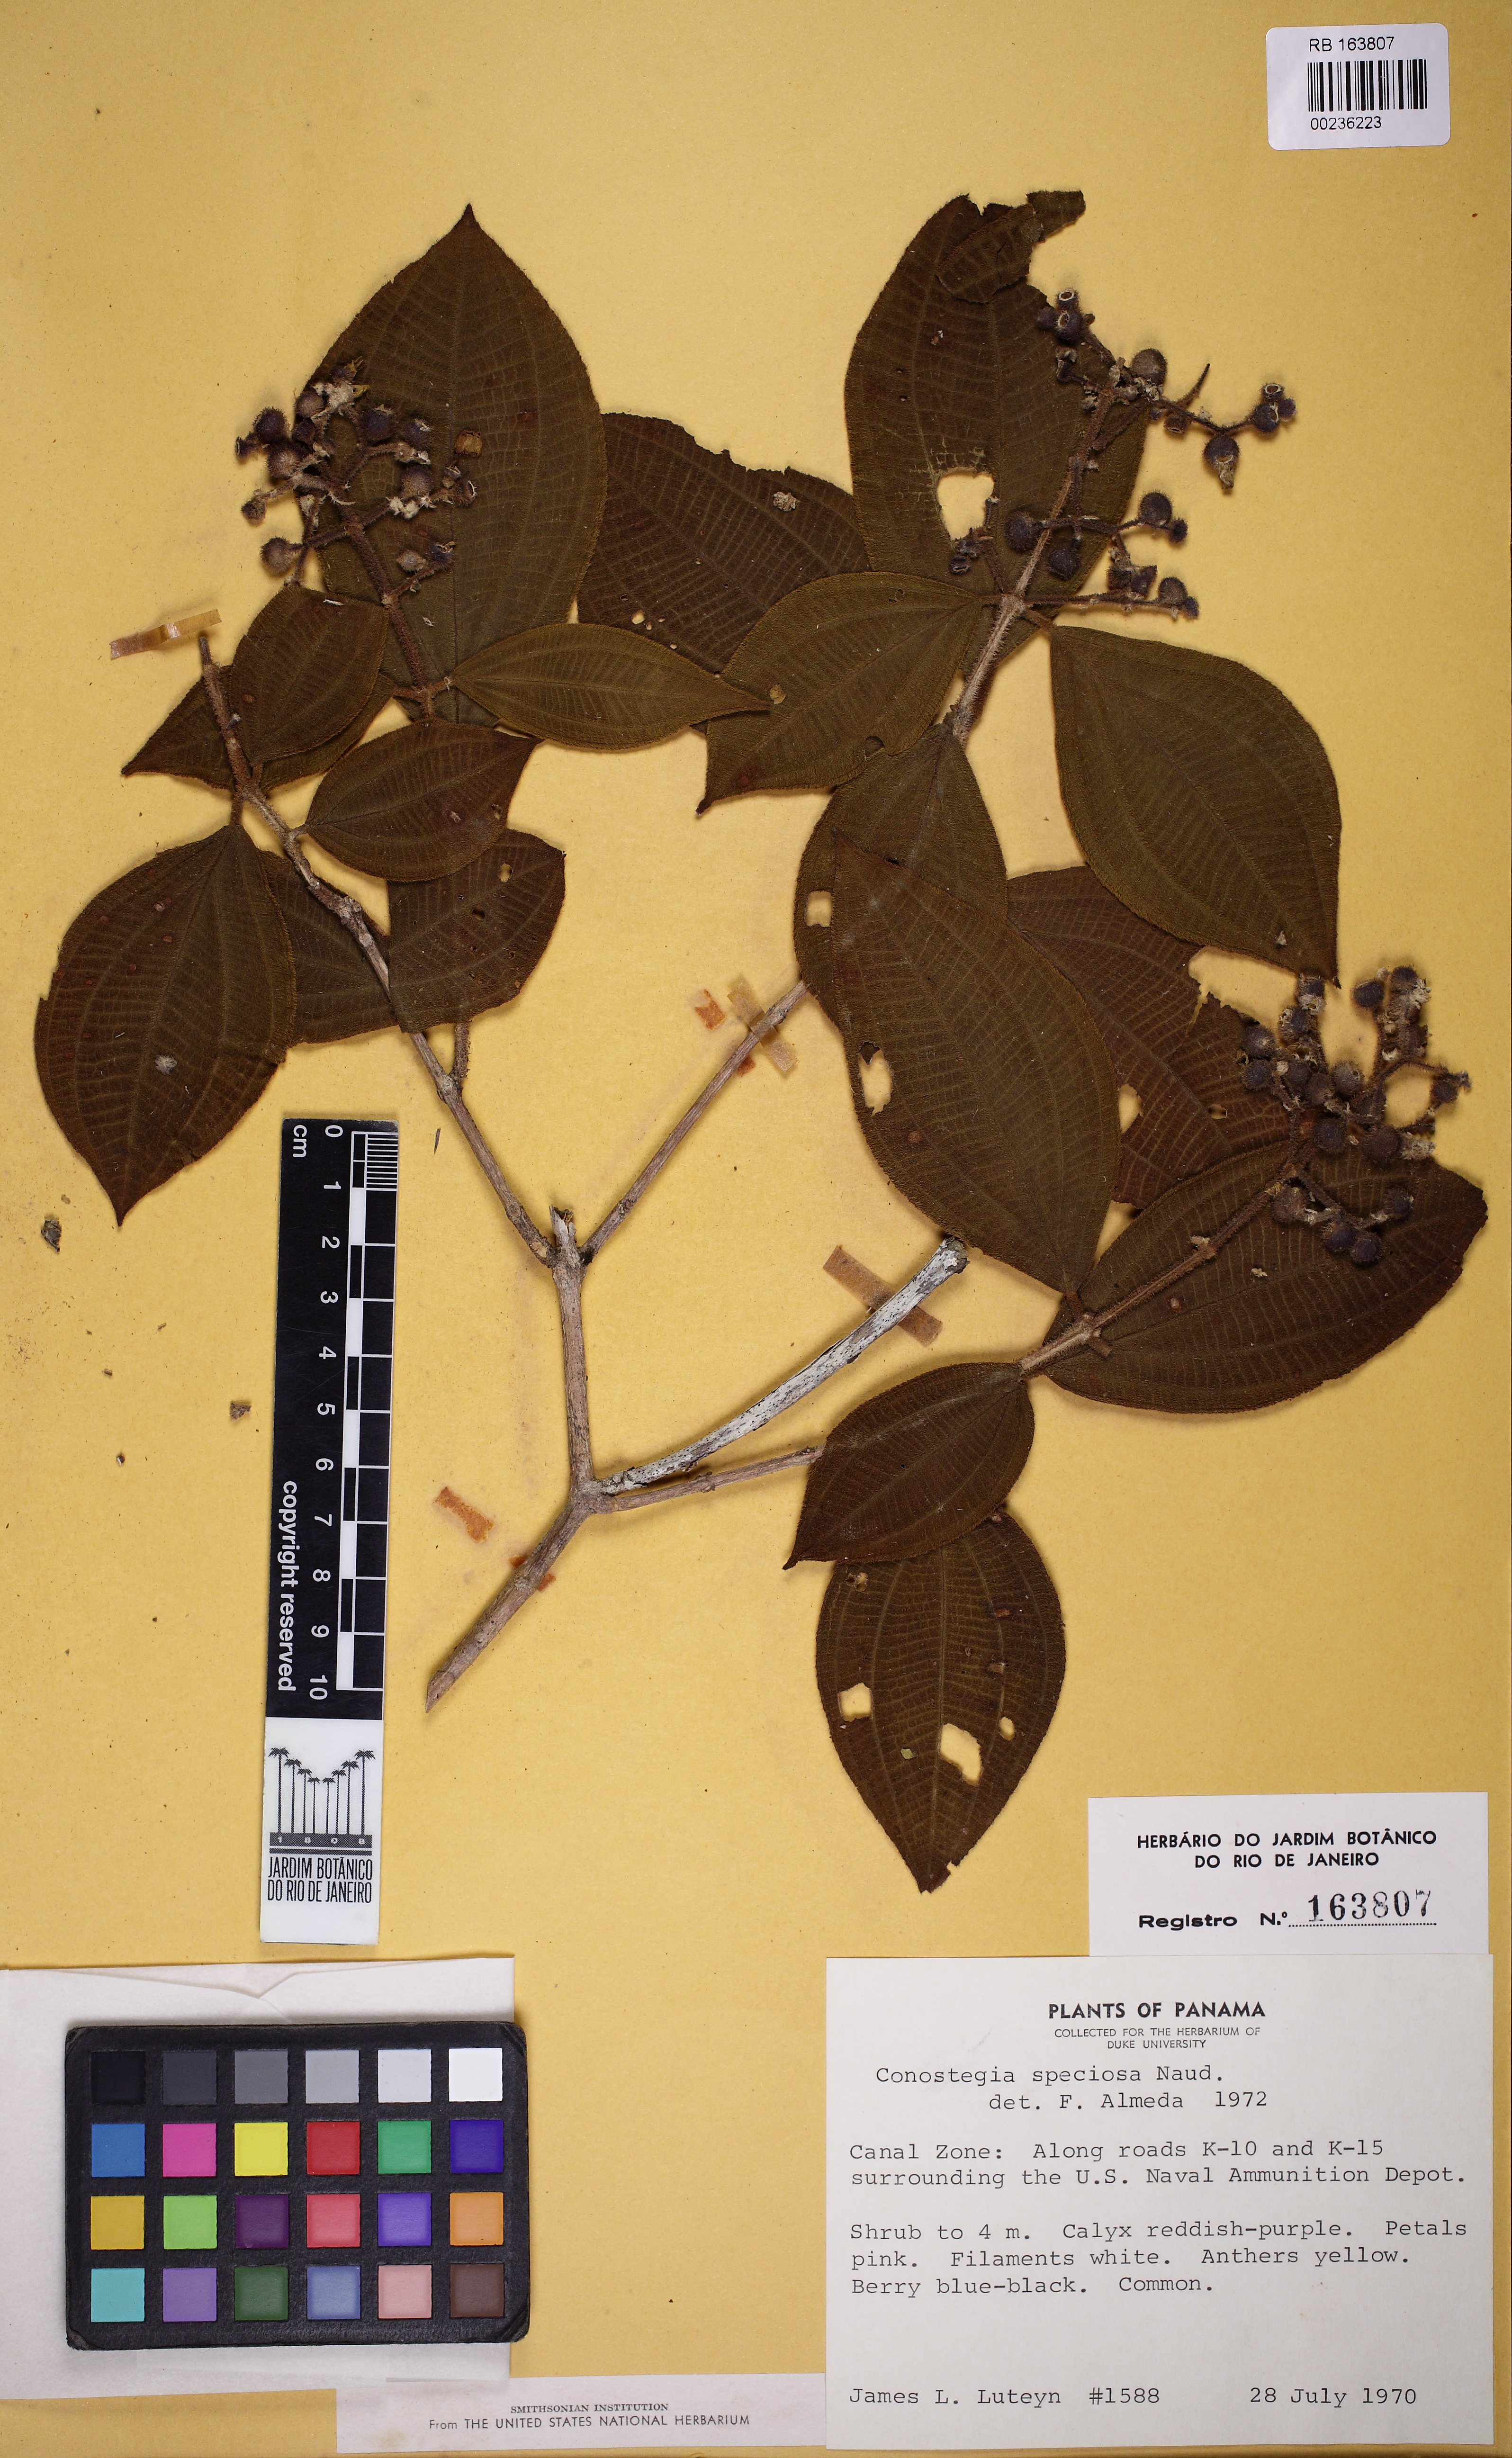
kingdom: Plantae
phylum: Tracheophyta
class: Magnoliopsida
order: Myrtales
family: Melastomataceae
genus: Miconia
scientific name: Miconia conospeciosa
